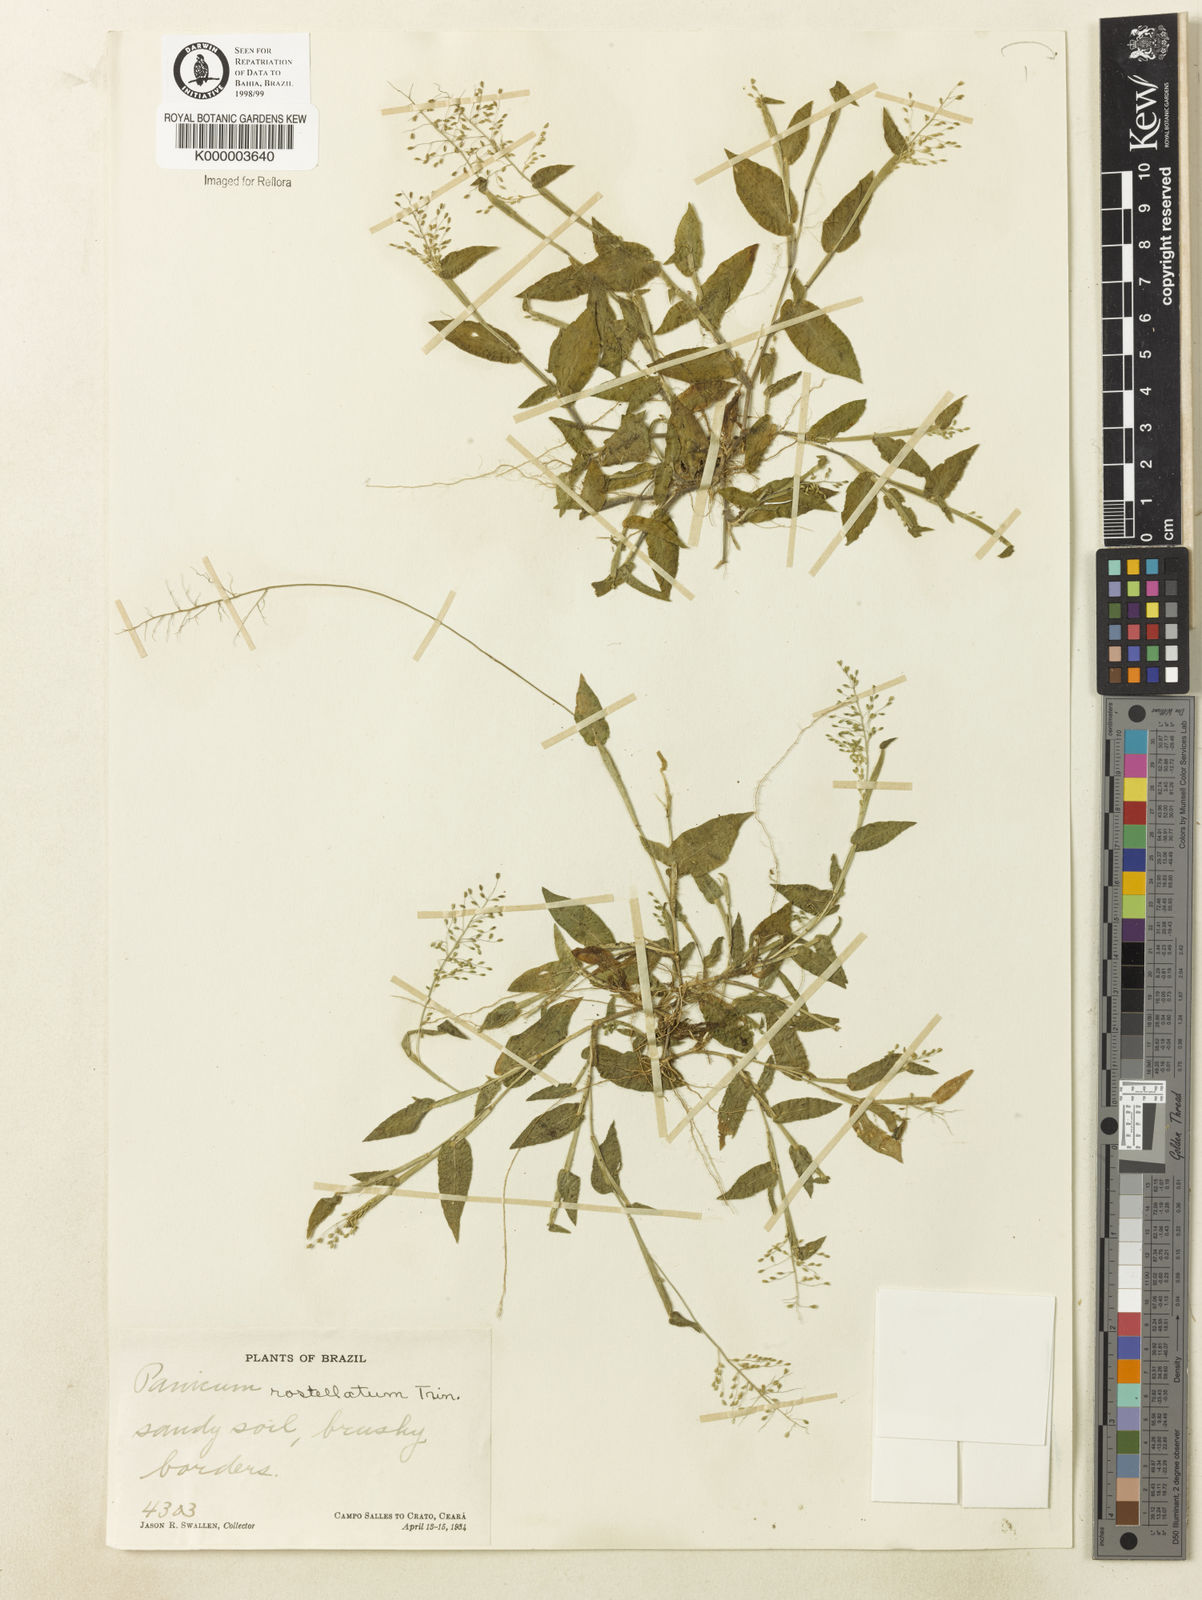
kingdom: Plantae
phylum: Tracheophyta
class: Liliopsida
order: Poales
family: Poaceae
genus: Dichanthelium
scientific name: Dichanthelium sciurotis
